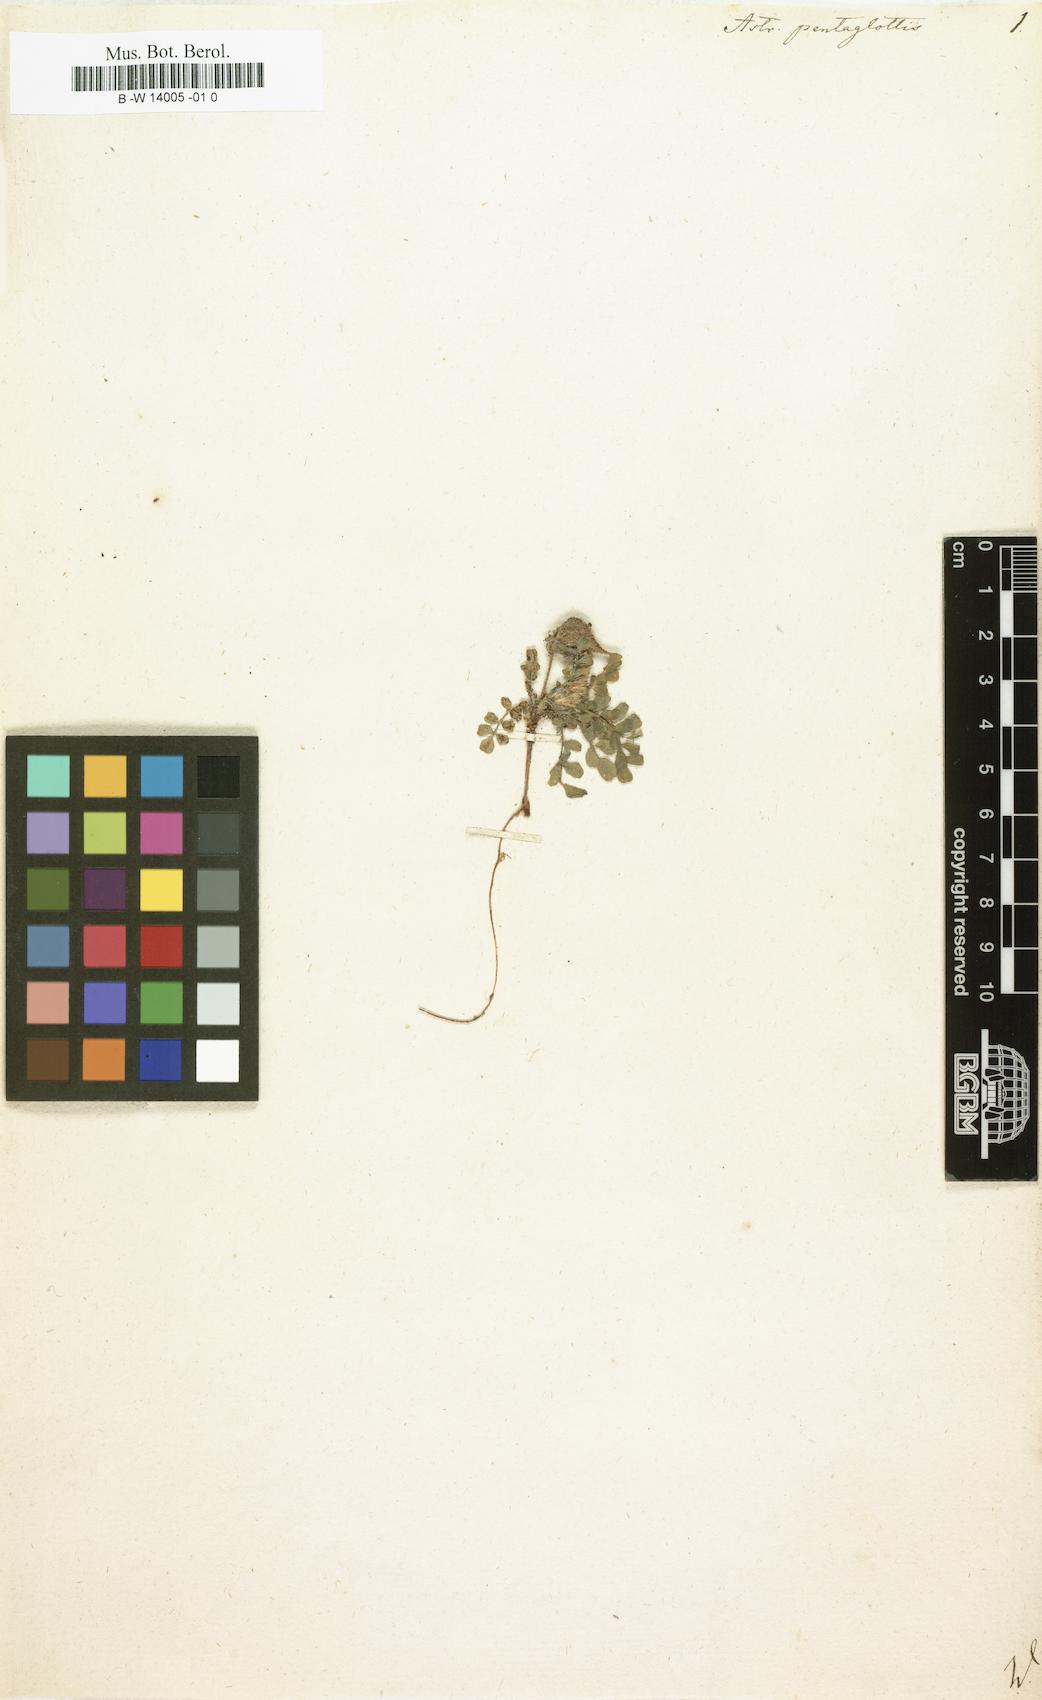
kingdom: Plantae
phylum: Tracheophyta
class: Magnoliopsida
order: Fabales
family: Fabaceae
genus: Astragalus
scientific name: Astragalus echinatus
